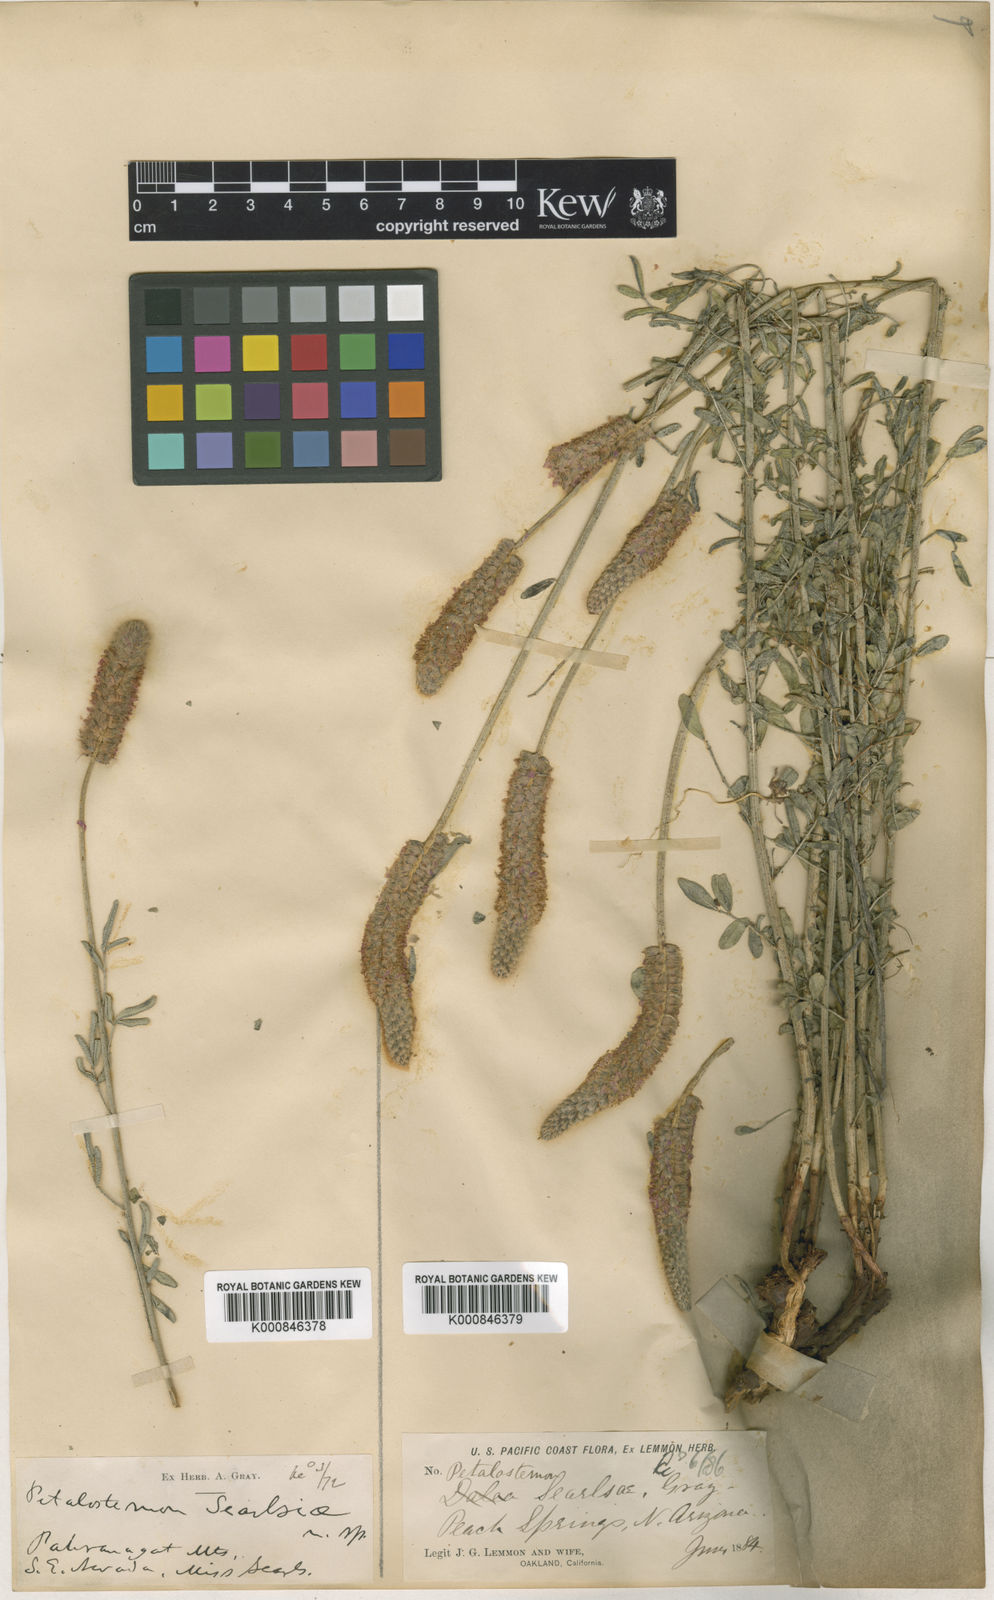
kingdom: Plantae
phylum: Tracheophyta
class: Magnoliopsida
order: Fabales
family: Fabaceae
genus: Dalea
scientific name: Dalea searlsiae
